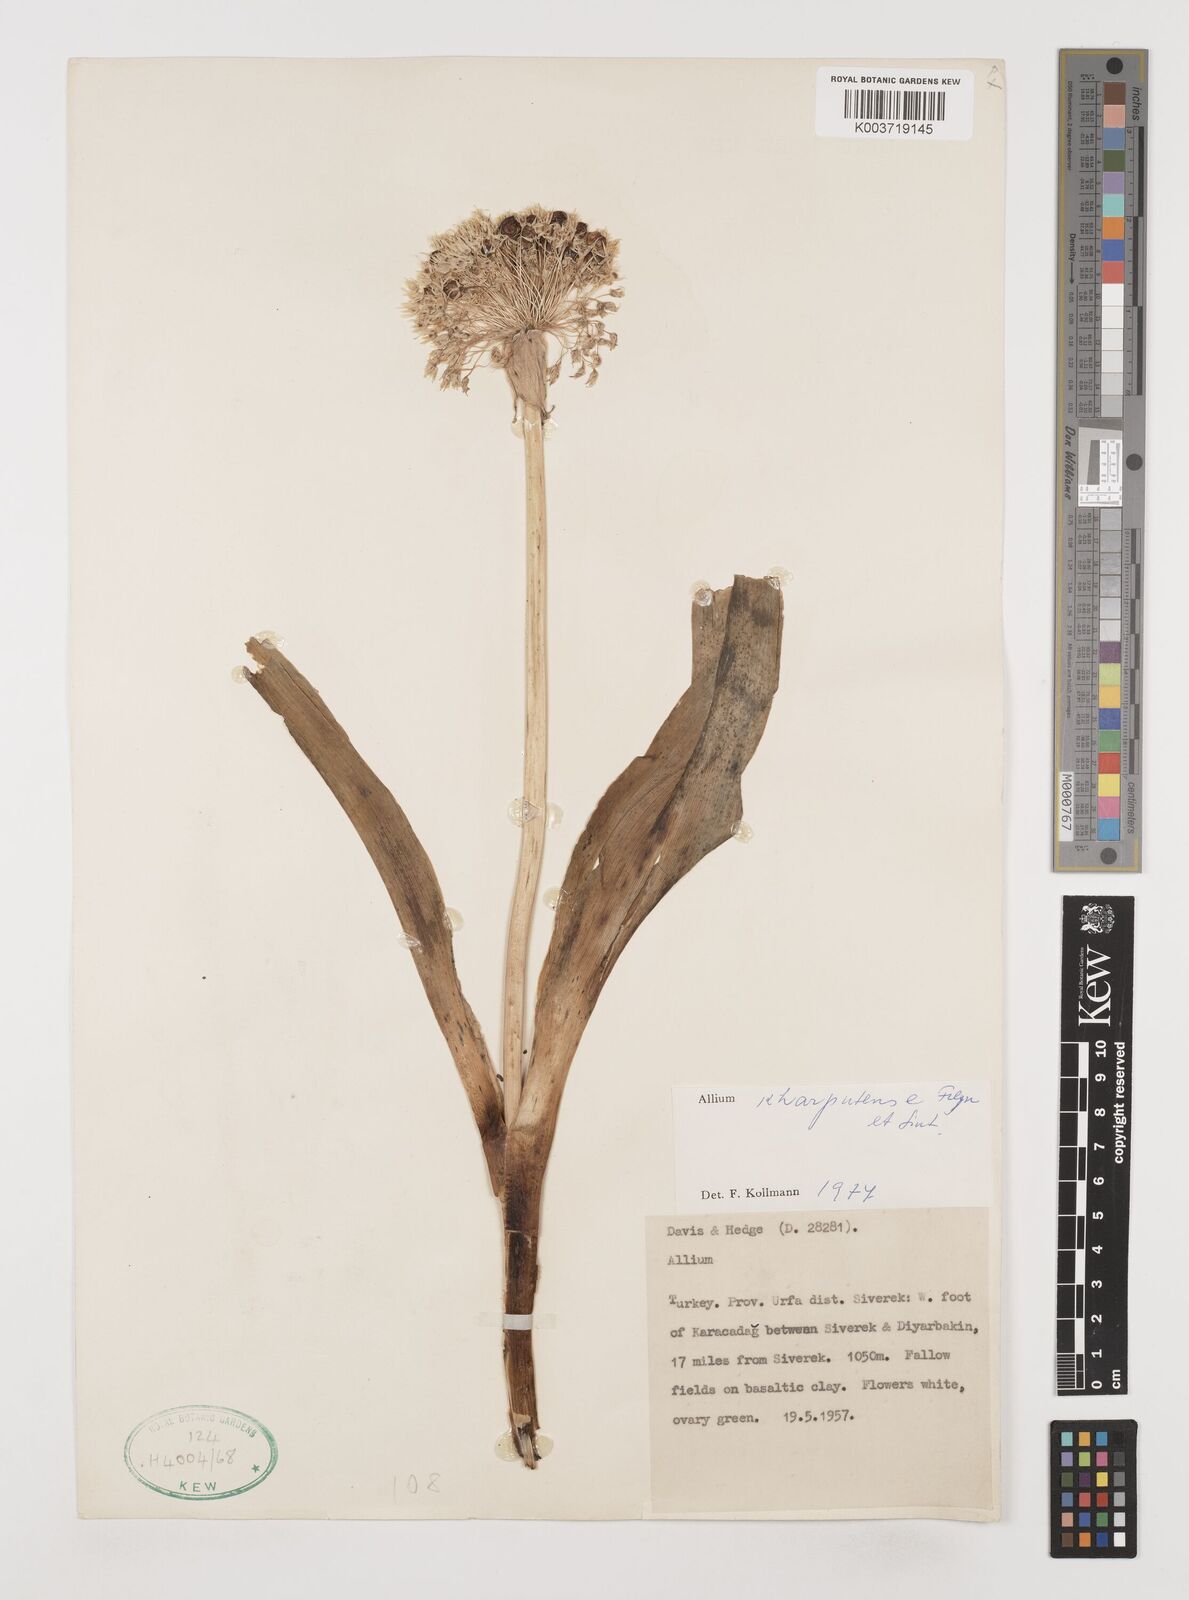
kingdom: Plantae
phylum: Tracheophyta
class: Liliopsida
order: Asparagales
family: Amaryllidaceae
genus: Allium
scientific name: Allium kharputense
